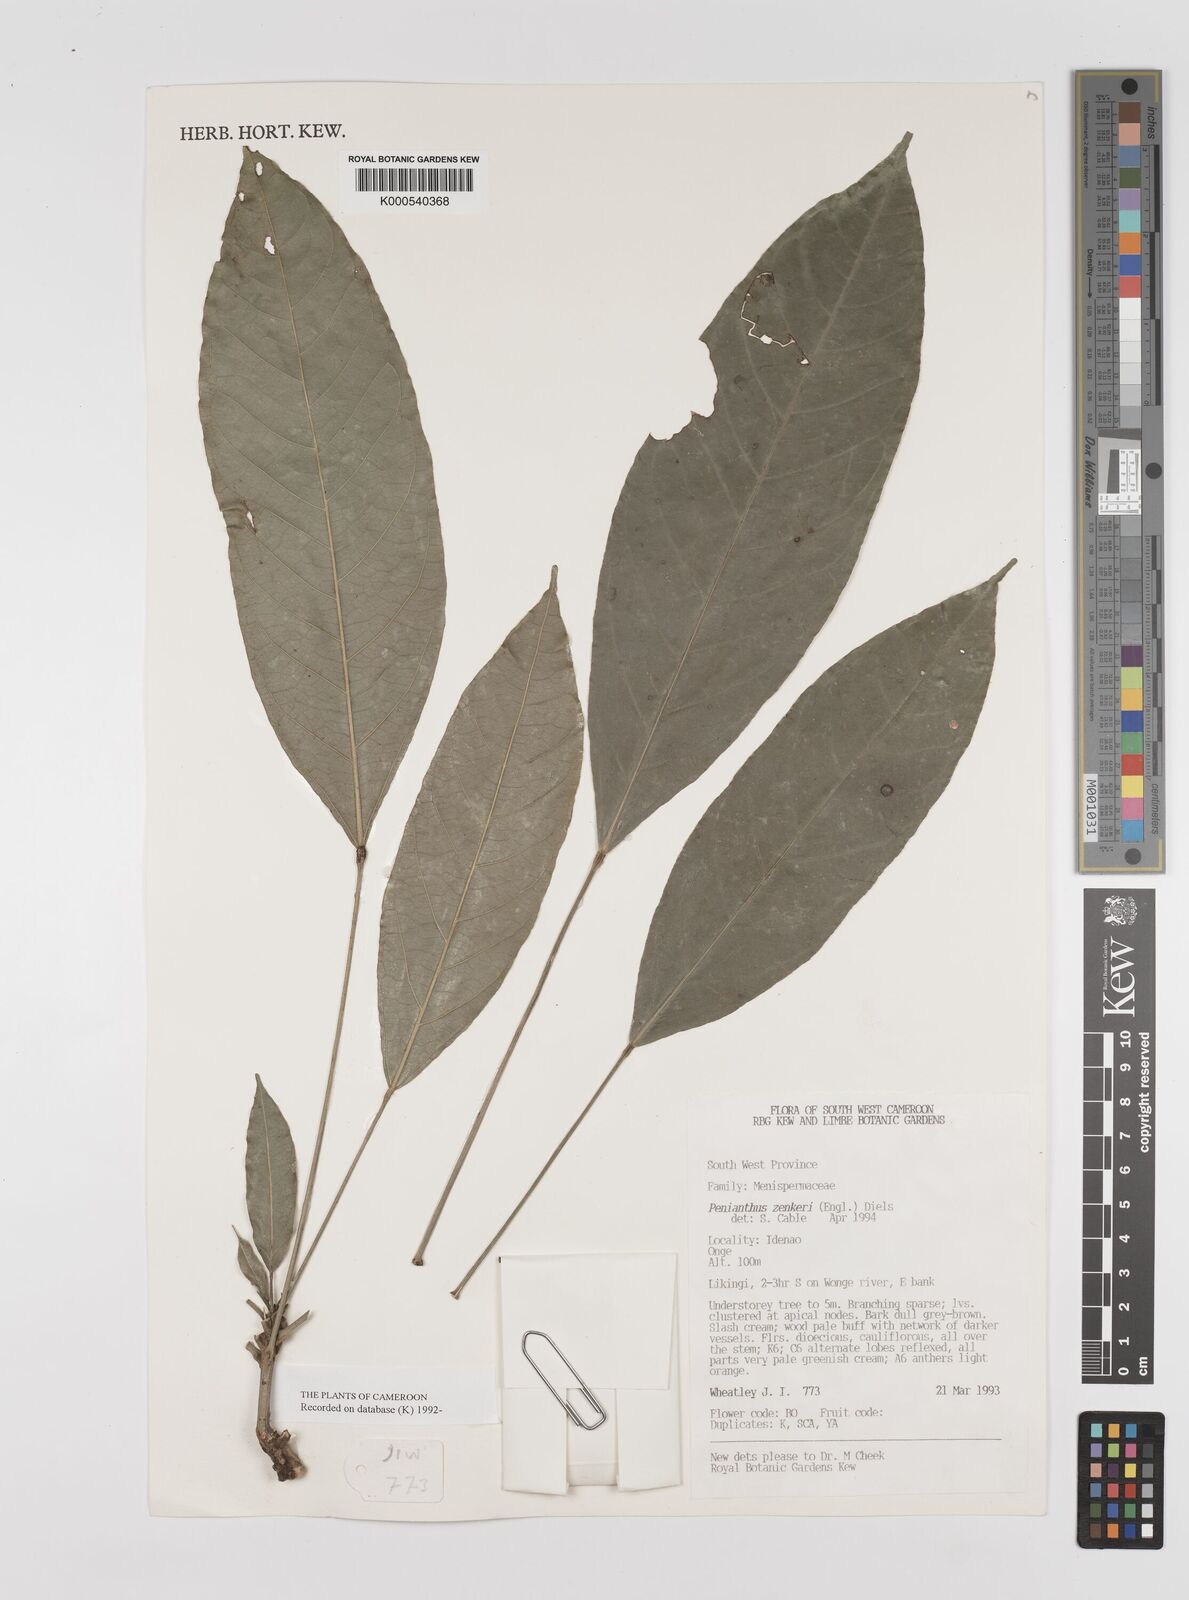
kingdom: Plantae
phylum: Tracheophyta
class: Magnoliopsida
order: Ranunculales
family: Menispermaceae
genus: Penianthus
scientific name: Penianthus zenkeri
